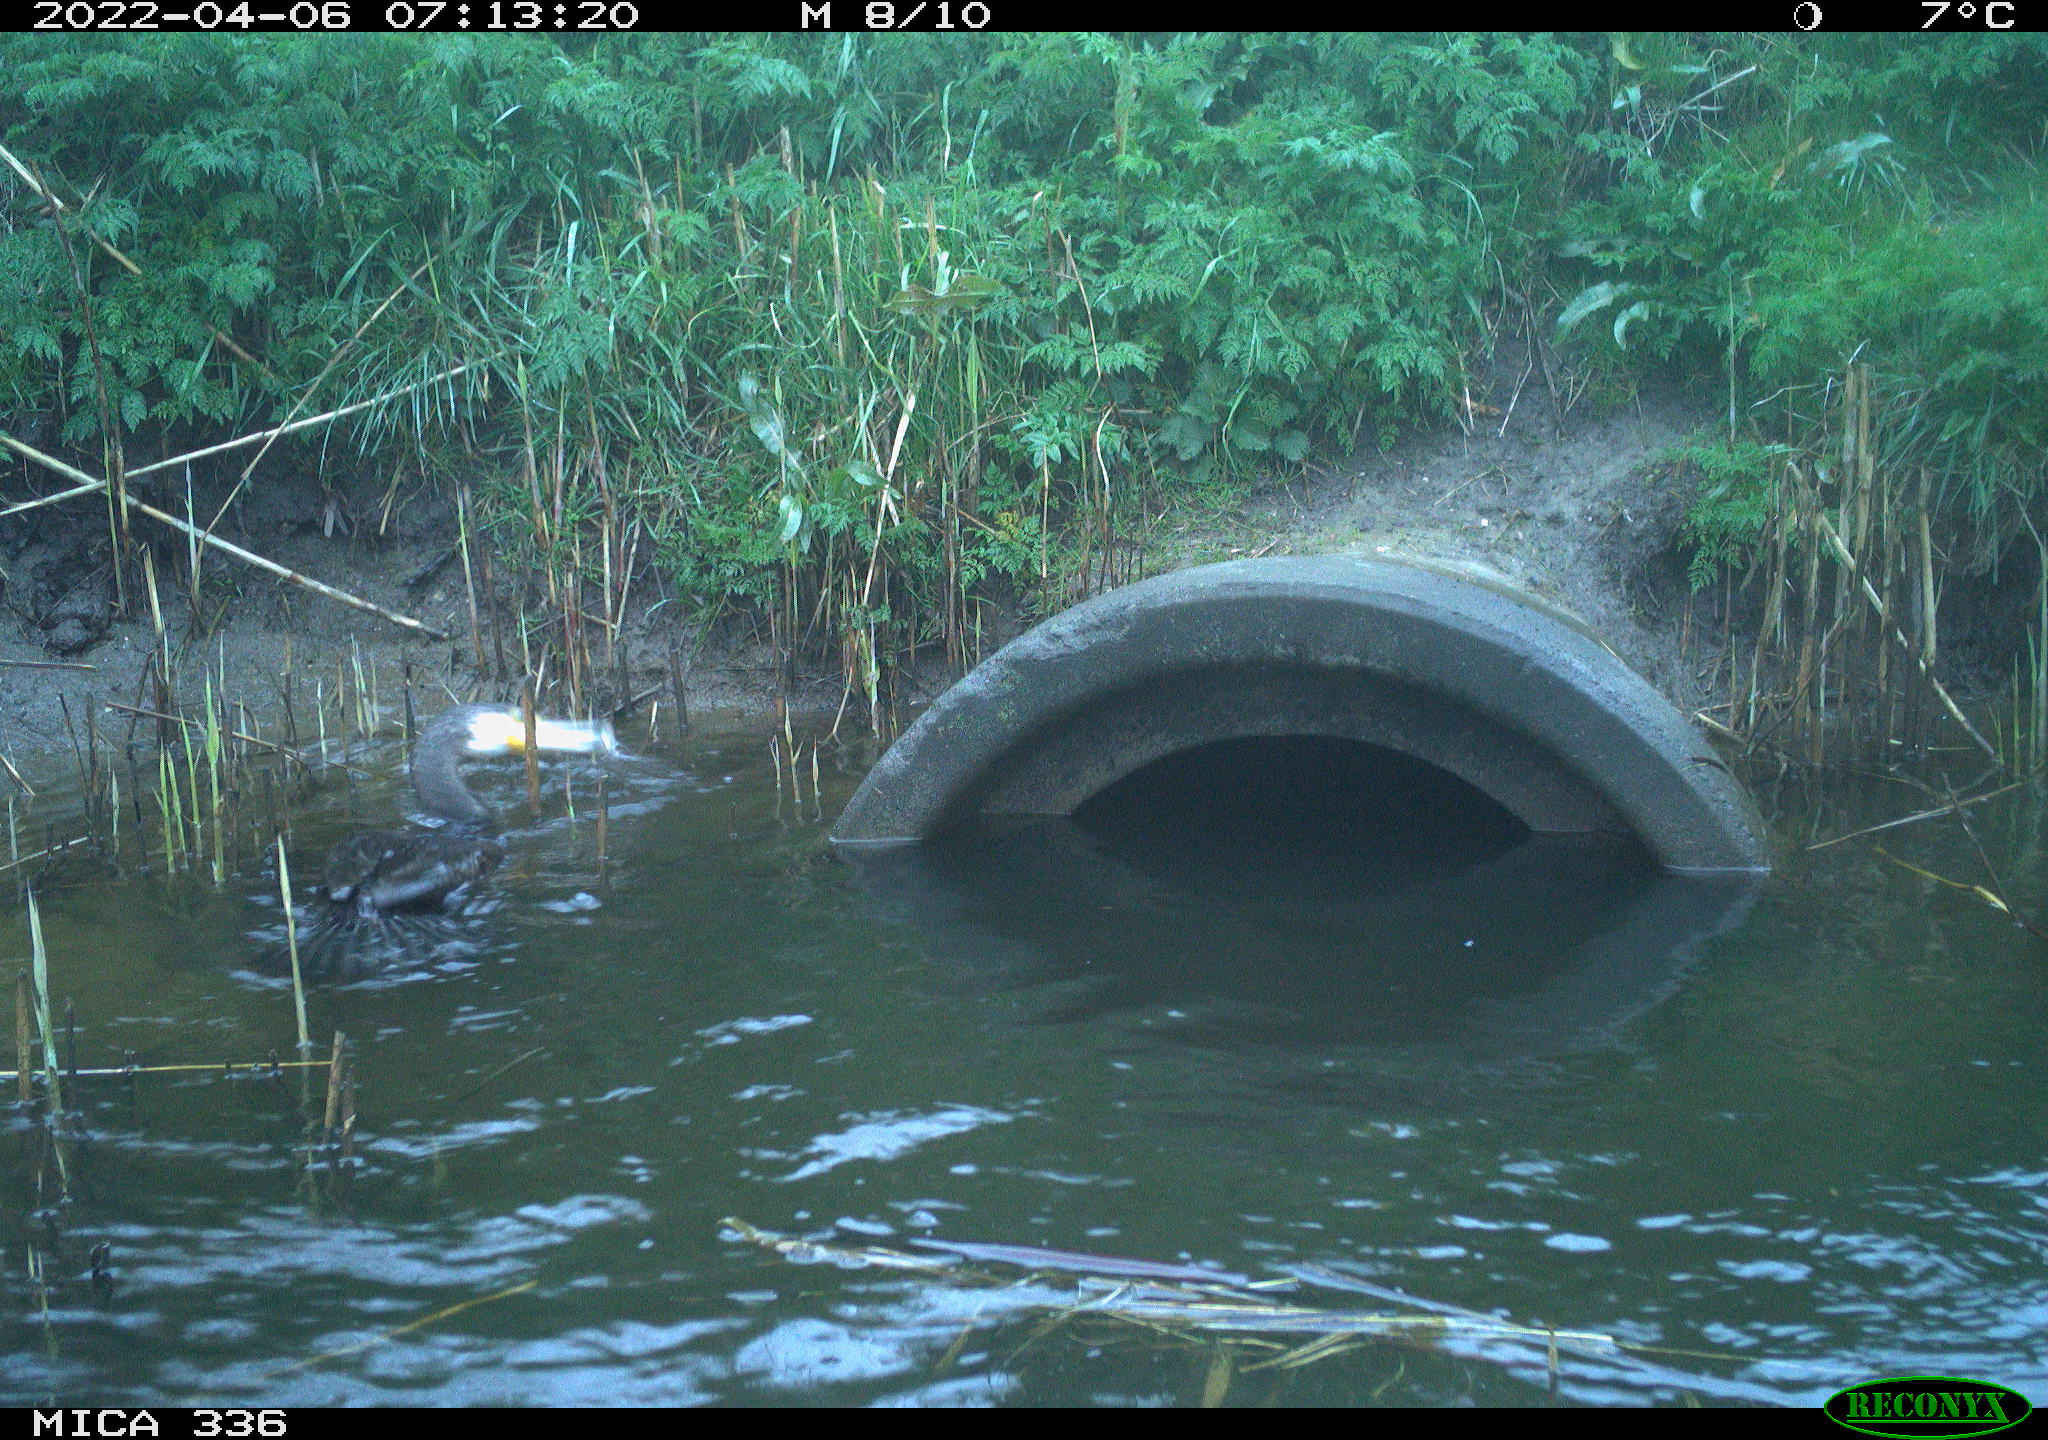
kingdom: Animalia
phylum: Chordata
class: Aves
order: Suliformes
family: Phalacrocoracidae
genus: Phalacrocorax
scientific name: Phalacrocorax carbo
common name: Great cormorant
